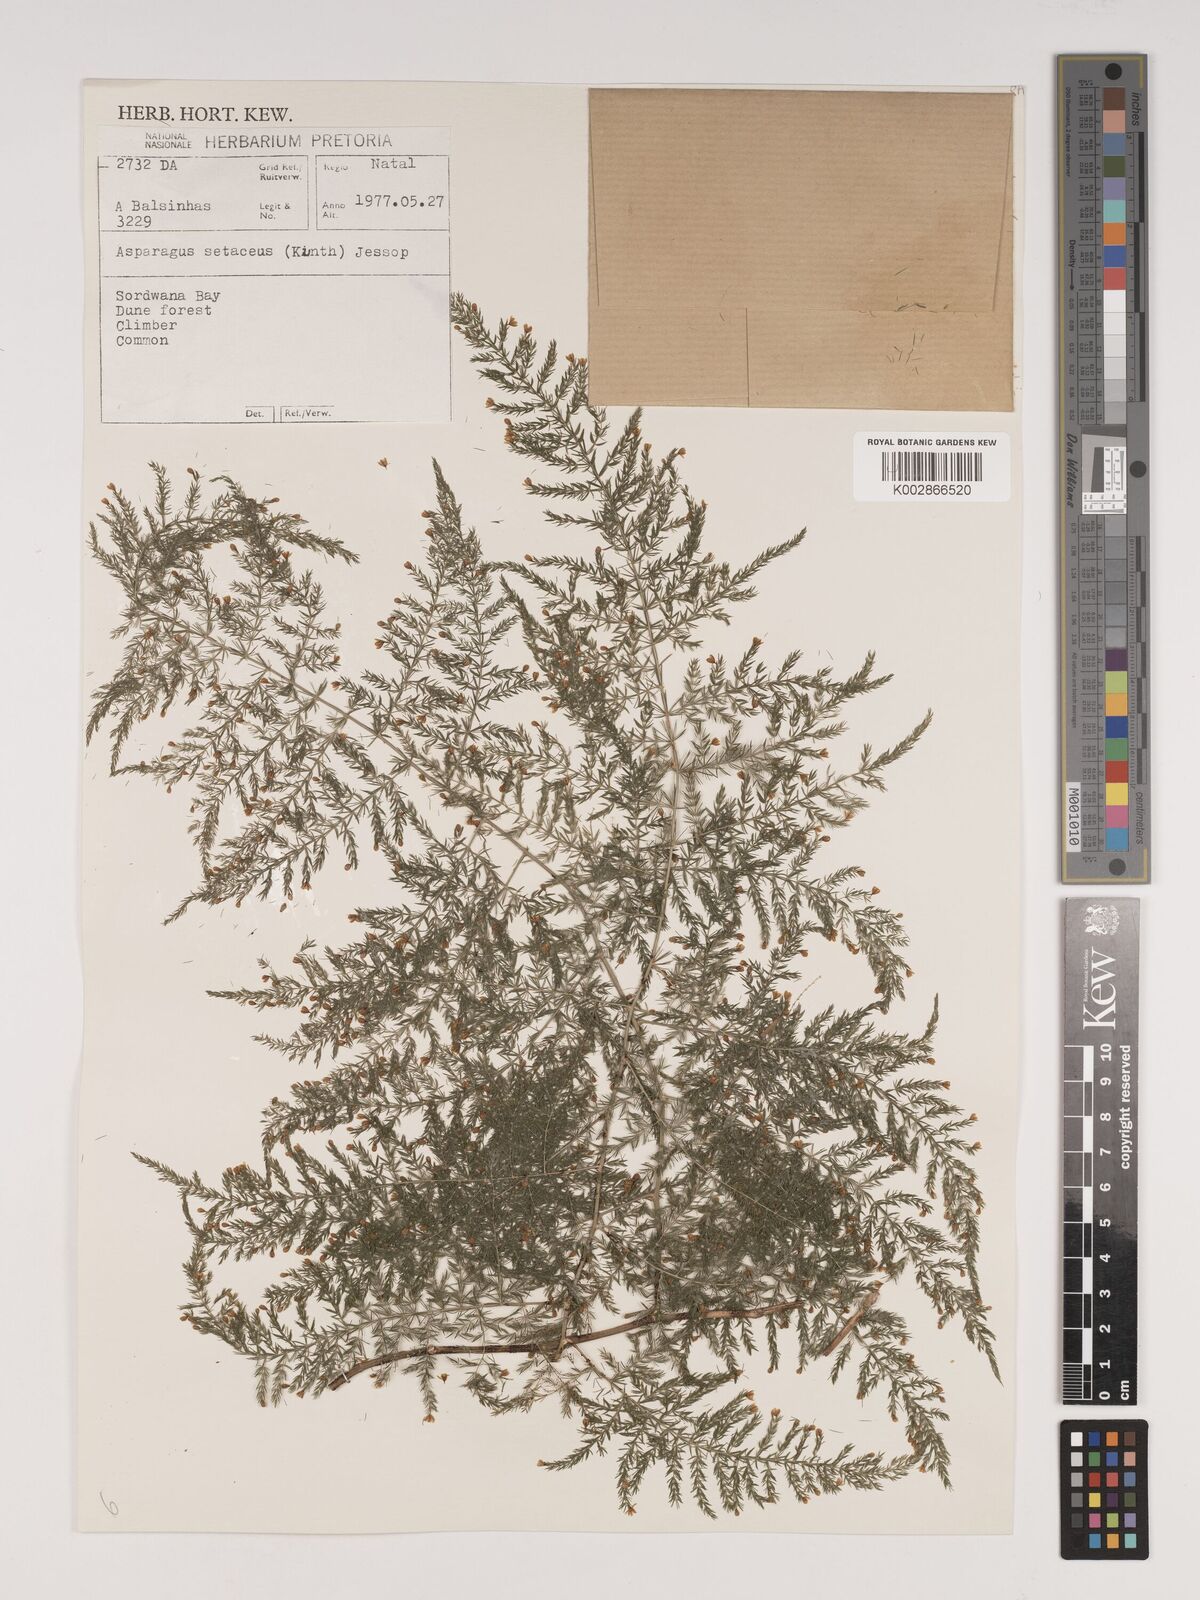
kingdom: Plantae
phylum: Tracheophyta
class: Liliopsida
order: Asparagales
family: Asparagaceae
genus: Asparagus
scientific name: Asparagus setaceus
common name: Common asparagus fern
